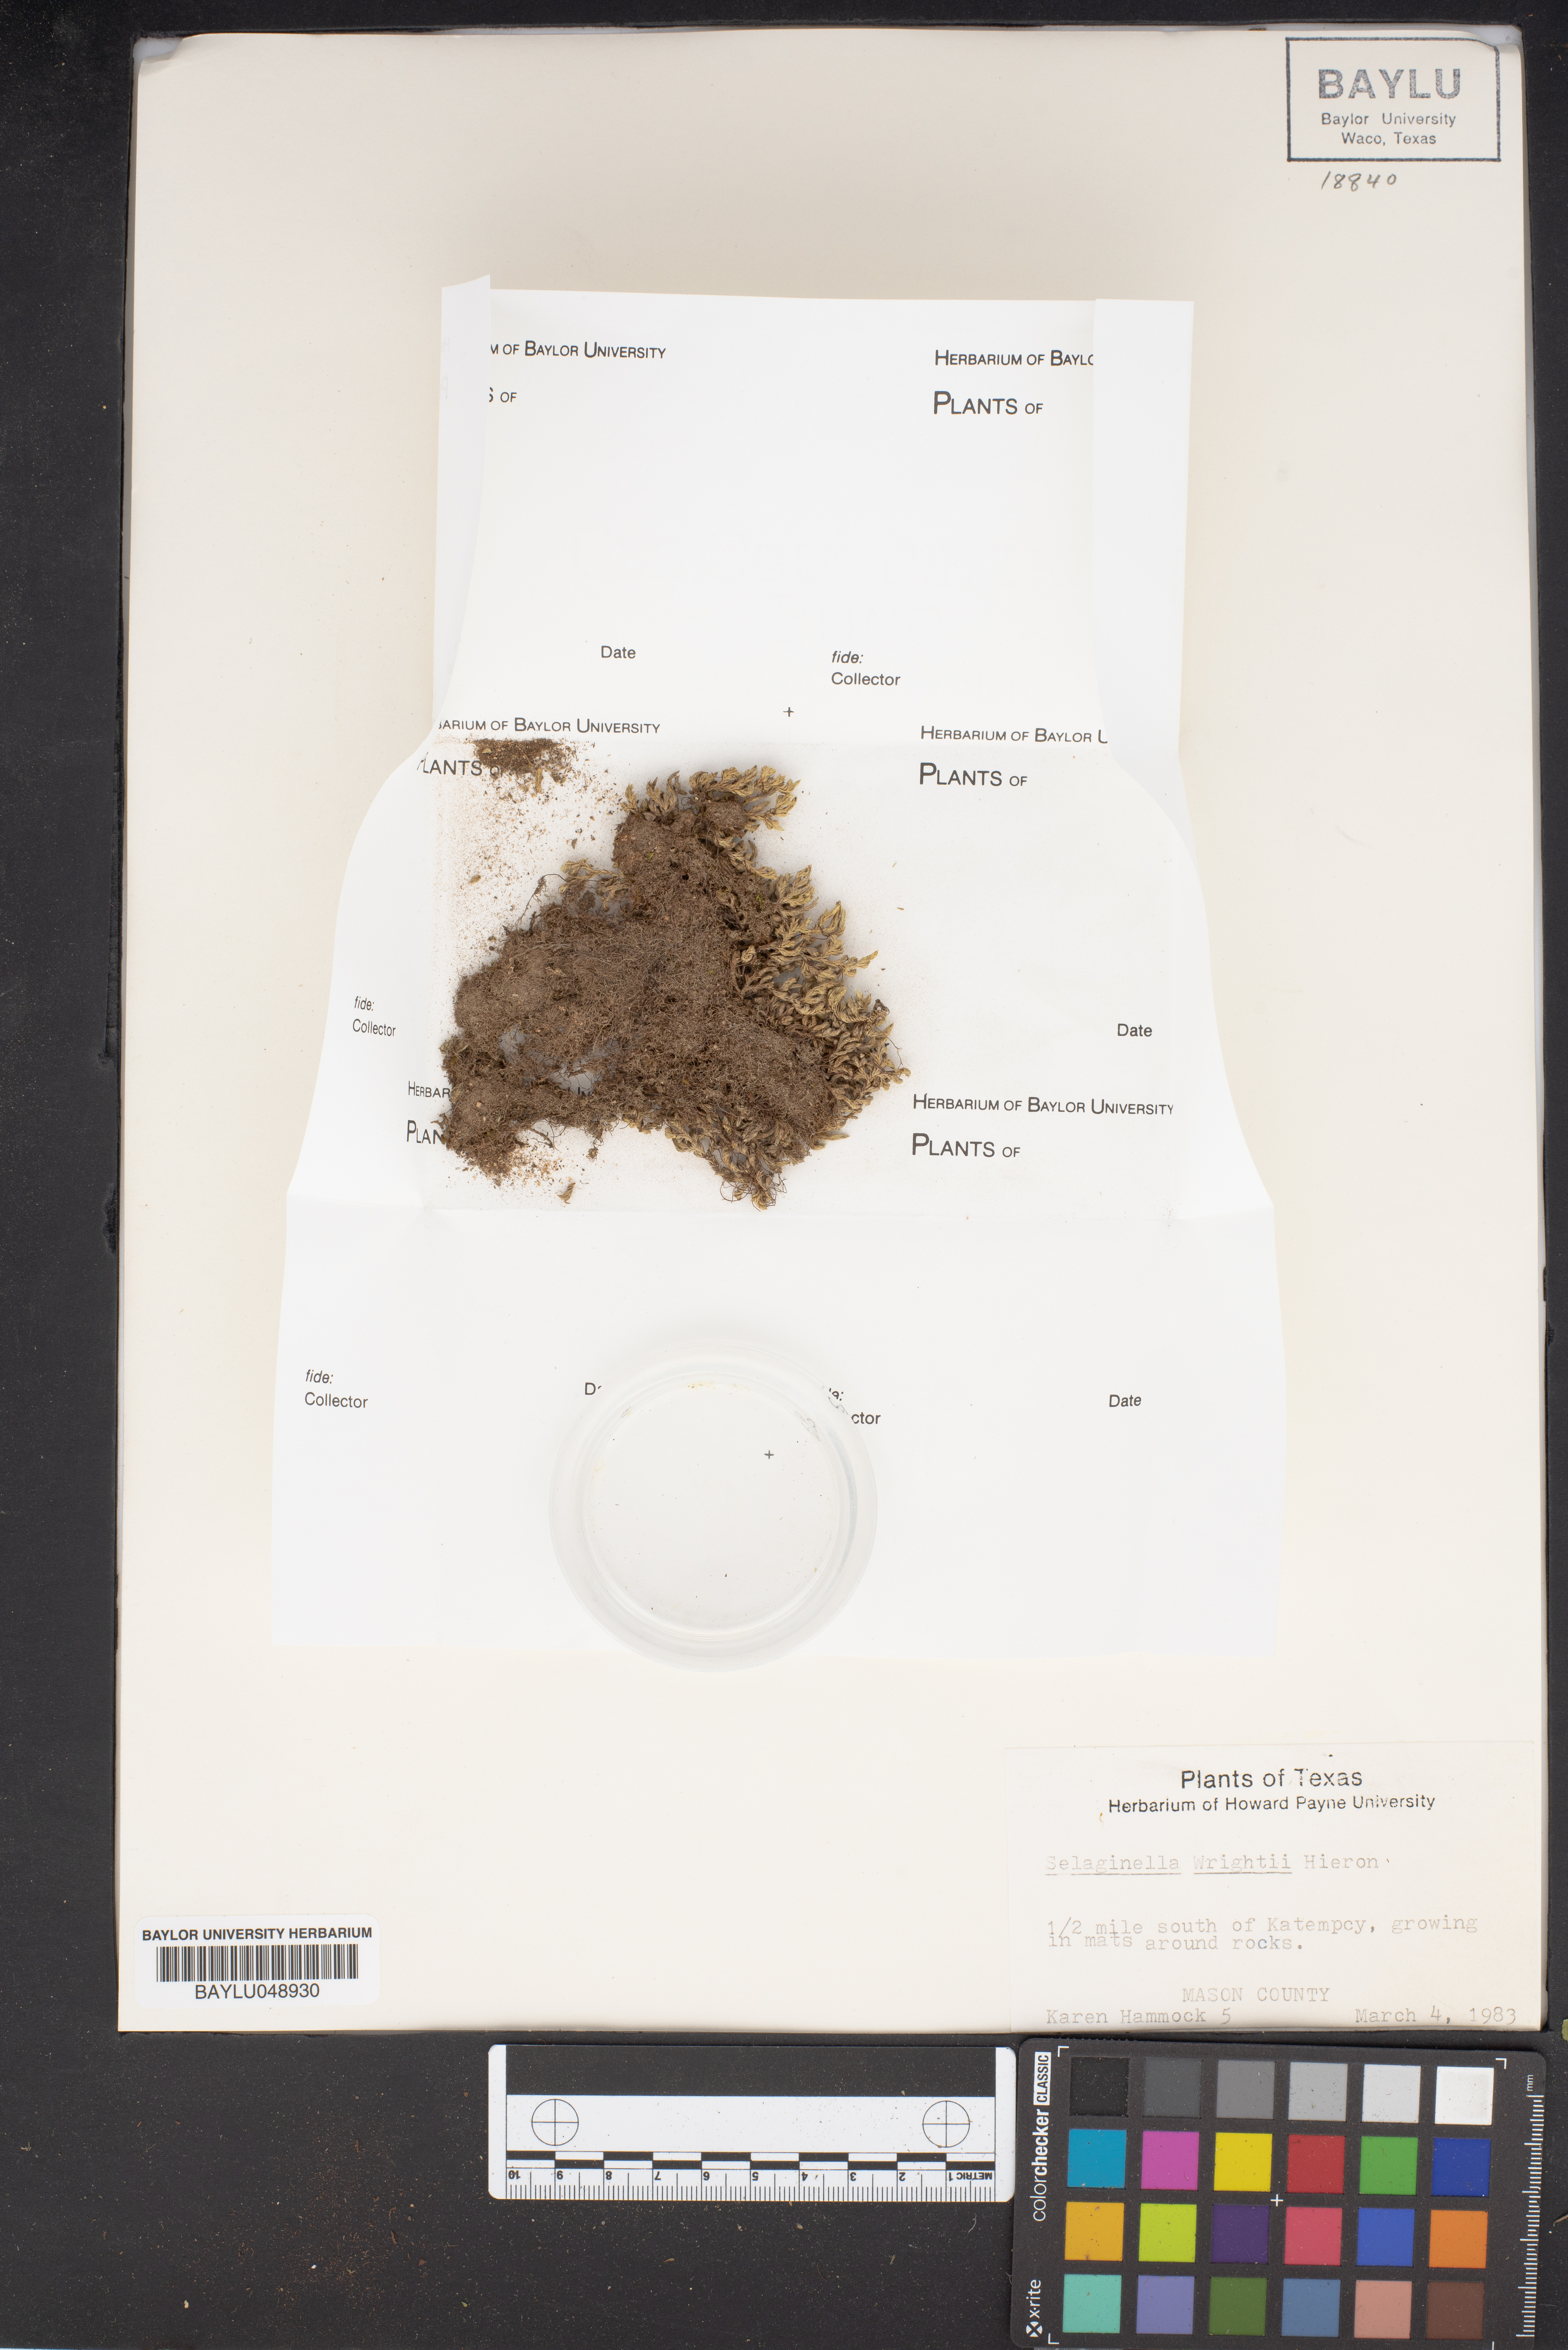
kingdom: Plantae
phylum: Tracheophyta
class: Lycopodiopsida
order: Selaginellales
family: Selaginellaceae
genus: Selaginella
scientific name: Selaginella wrightii
